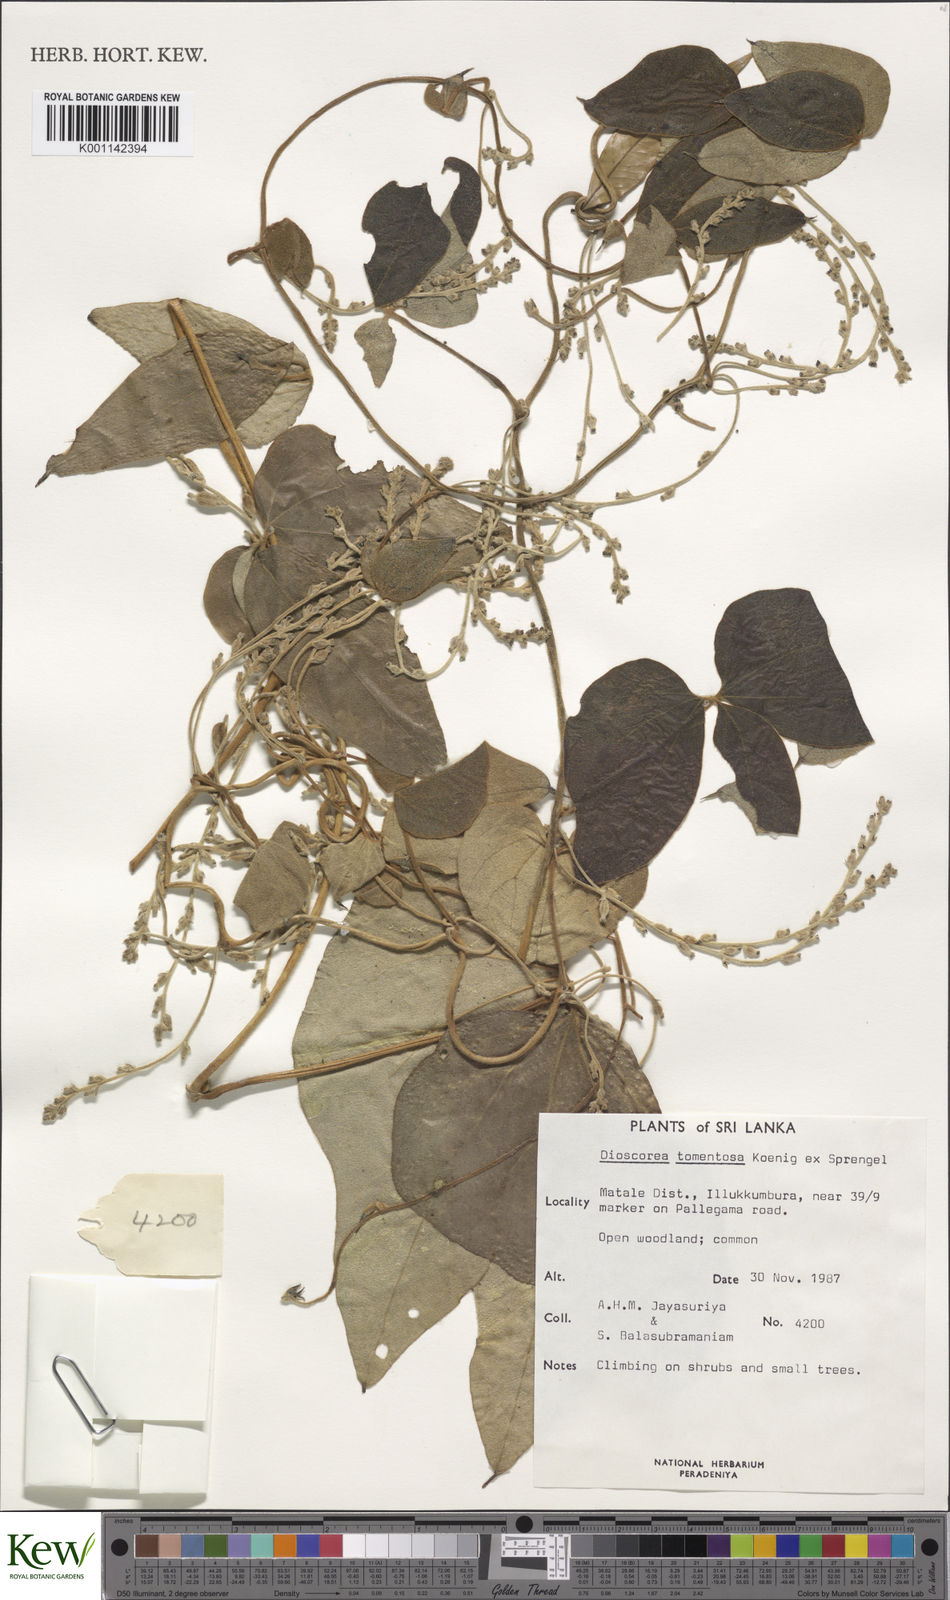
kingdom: Plantae
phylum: Tracheophyta
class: Liliopsida
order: Dioscoreales
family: Dioscoreaceae
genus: Dioscorea
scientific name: Dioscorea
